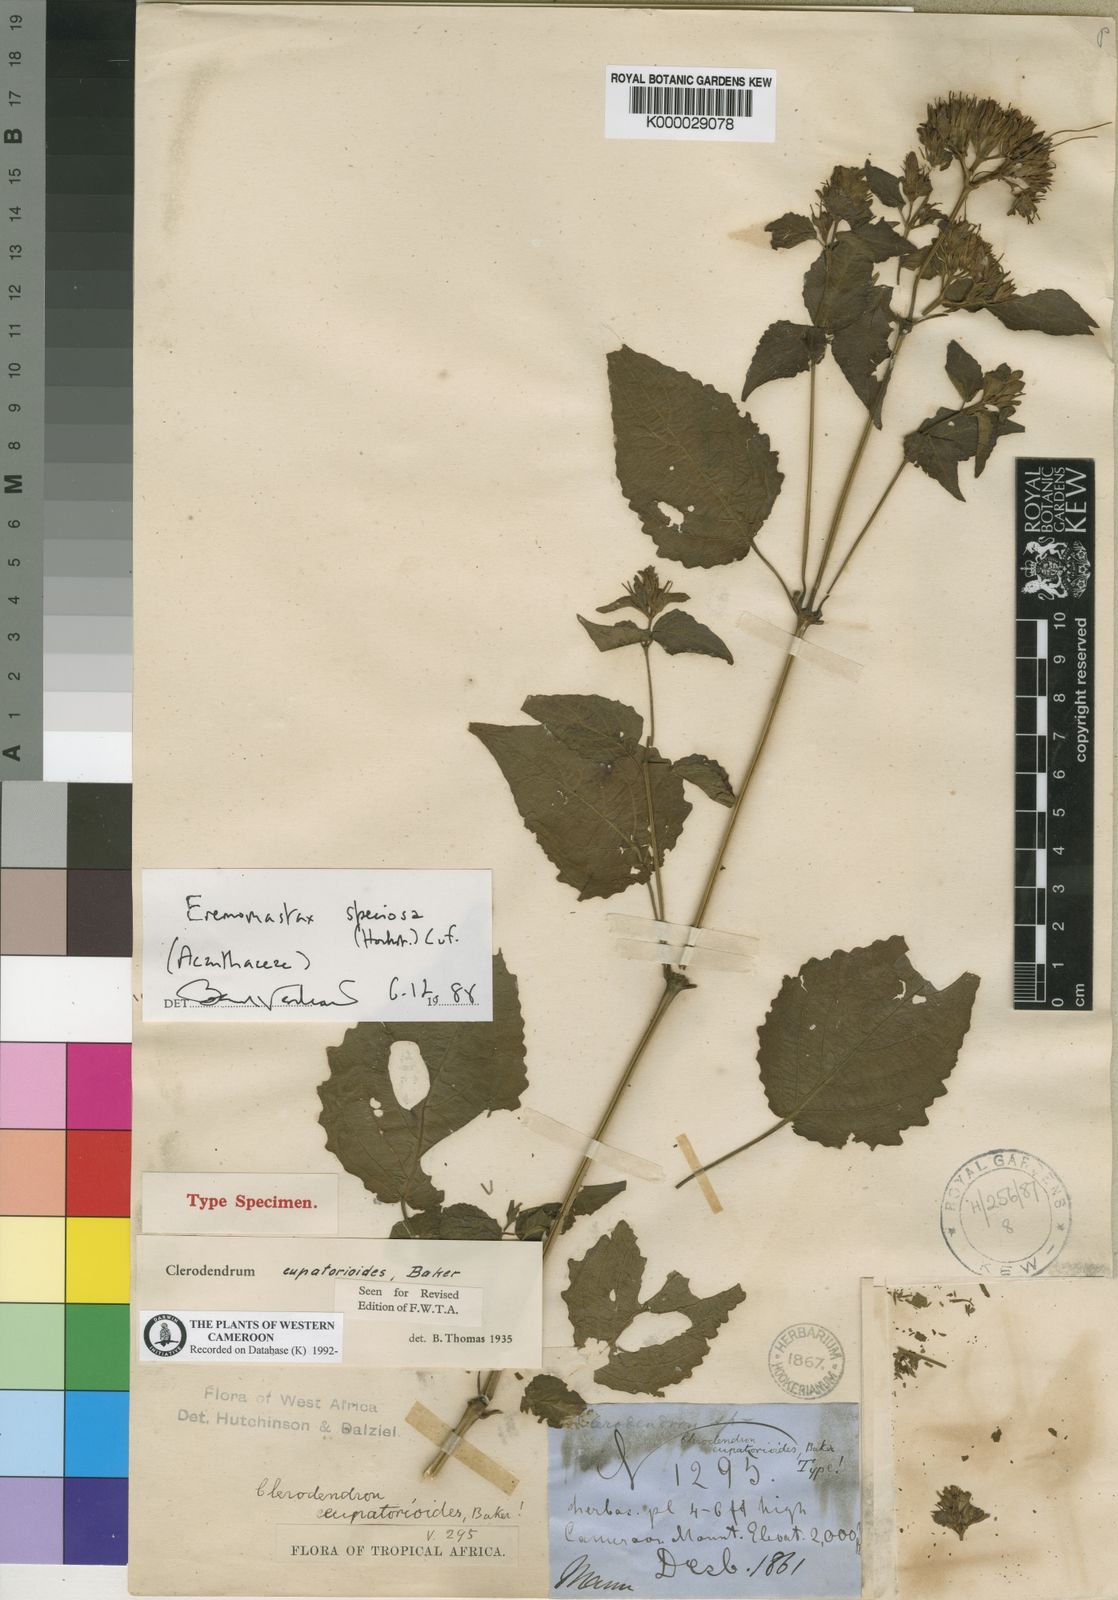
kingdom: Plantae
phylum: Tracheophyta
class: Magnoliopsida
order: Lamiales
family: Acanthaceae
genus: Eremomastax
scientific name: Eremomastax speciosa
